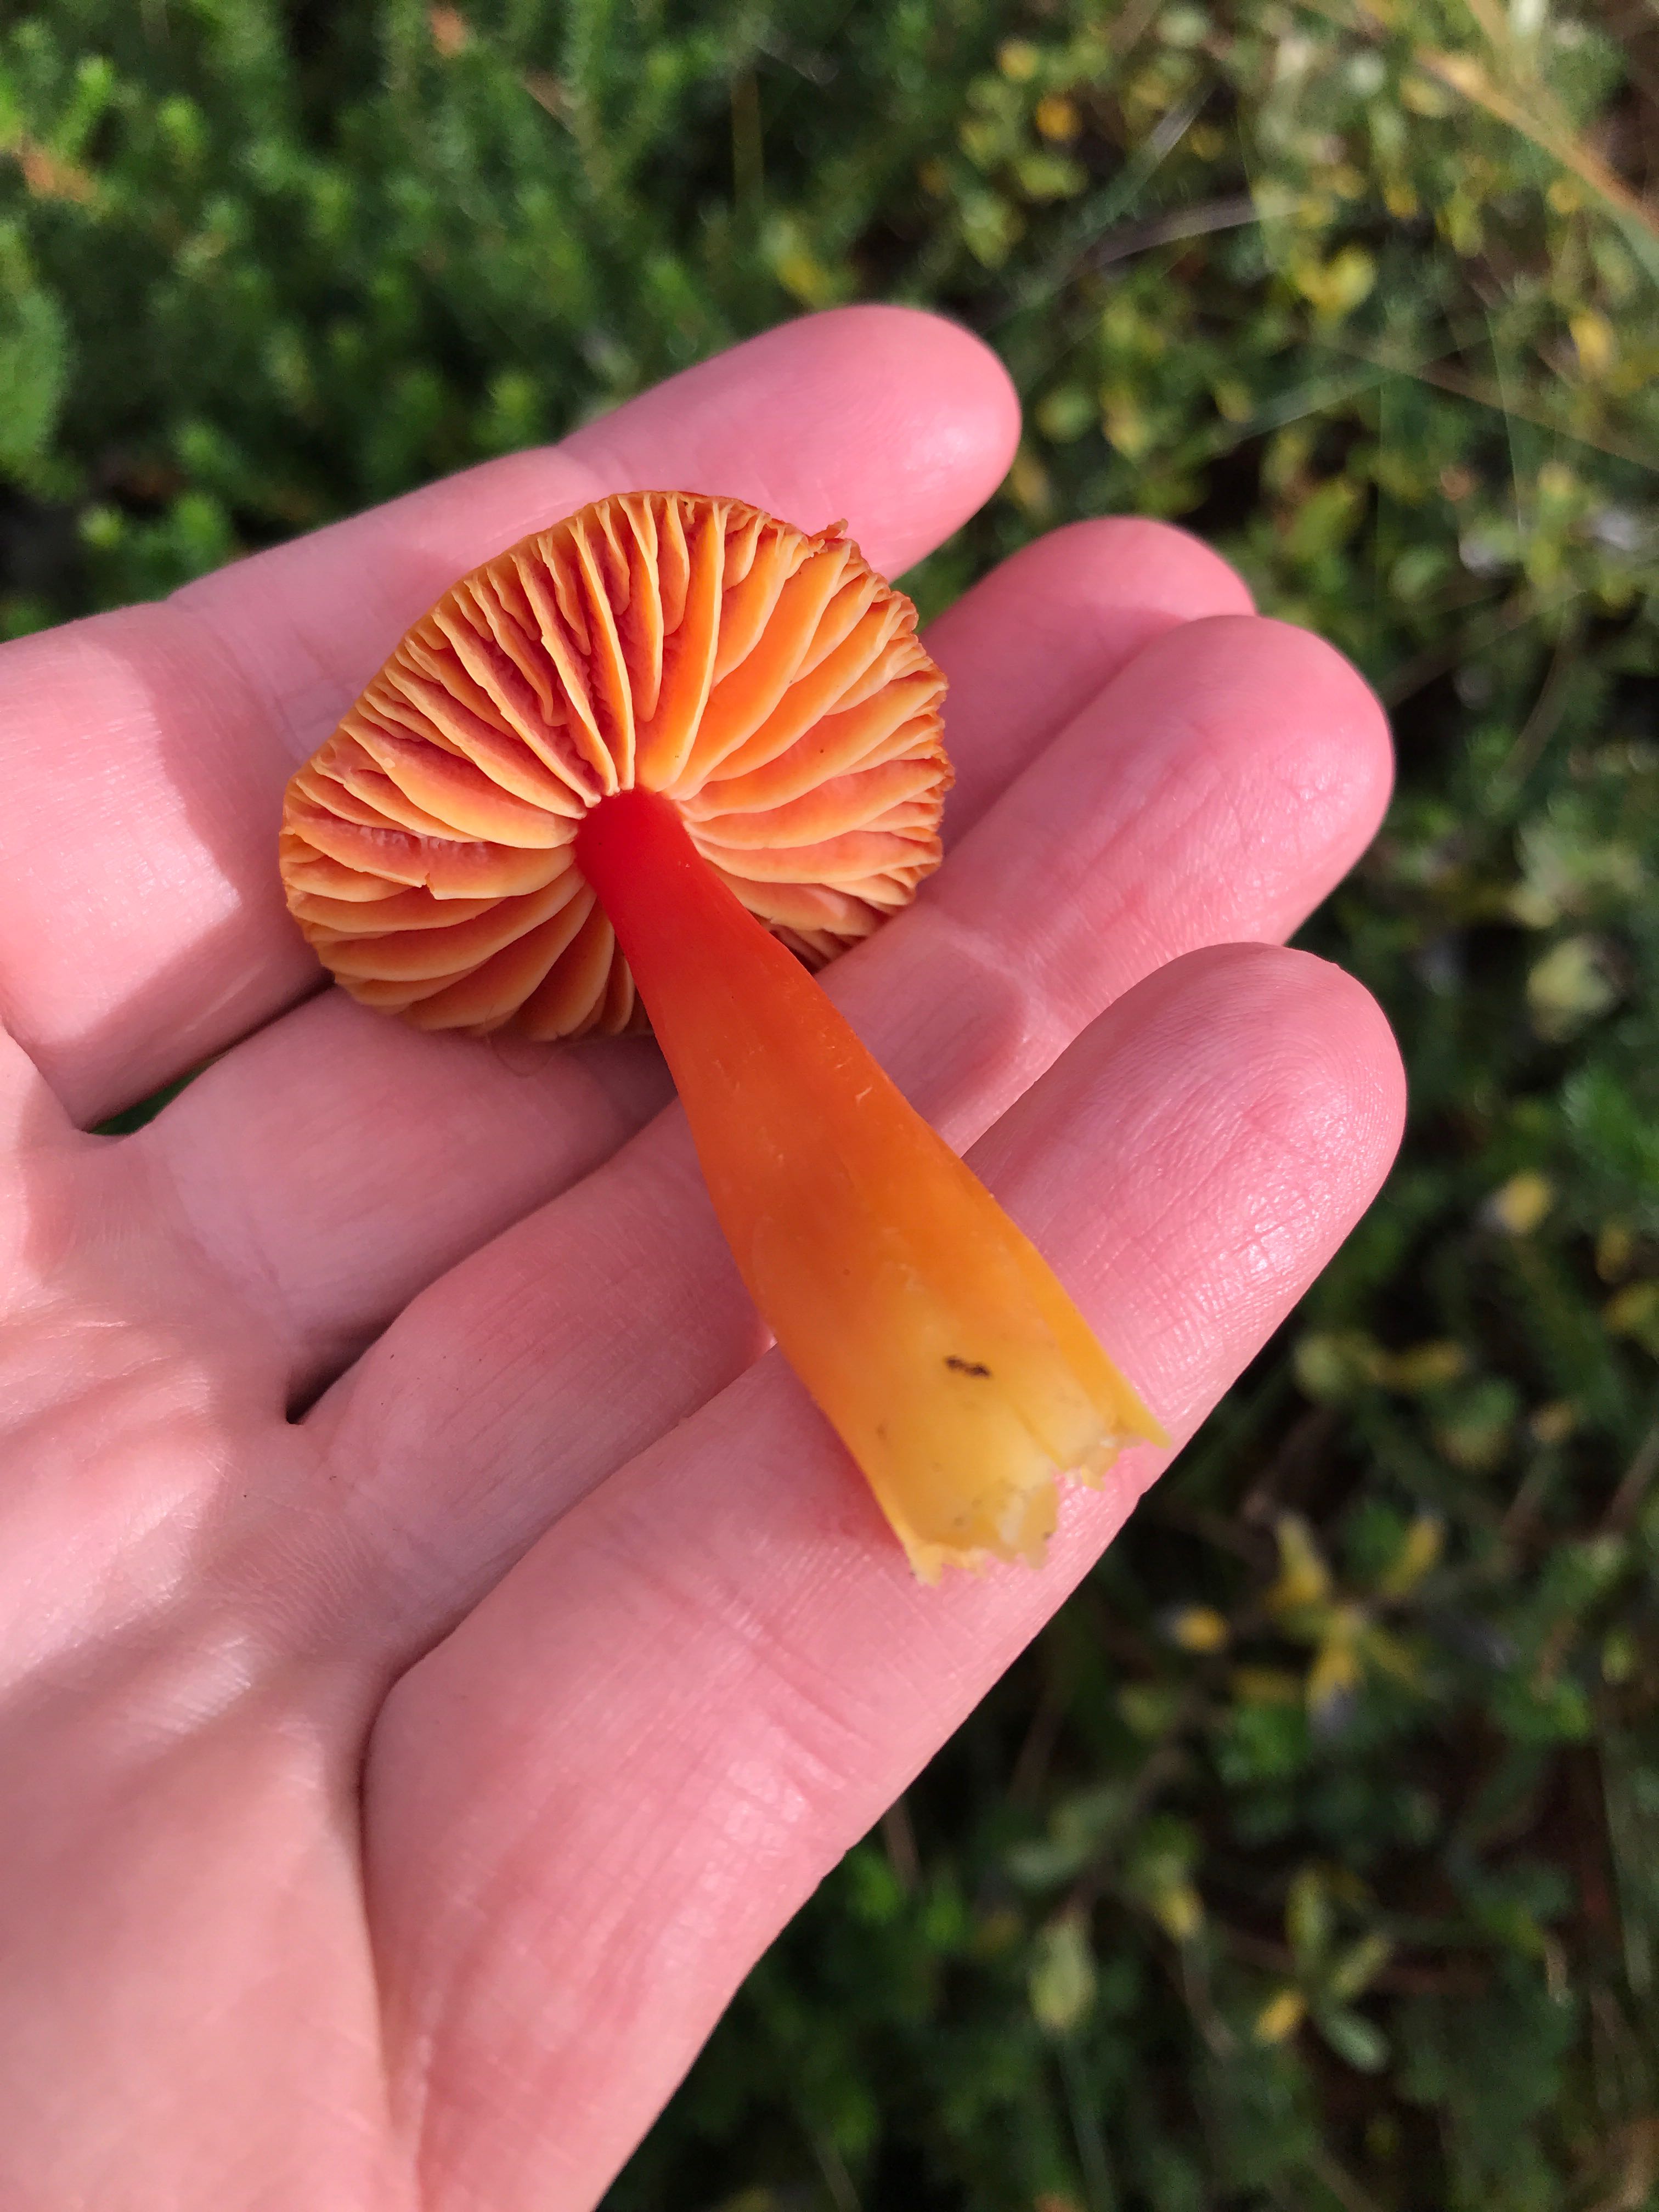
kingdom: Fungi
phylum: Basidiomycota
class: Agaricomycetes
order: Agaricales
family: Hygrophoraceae
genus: Hygrocybe
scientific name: Hygrocybe coccinea
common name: cinnober-vokshat
